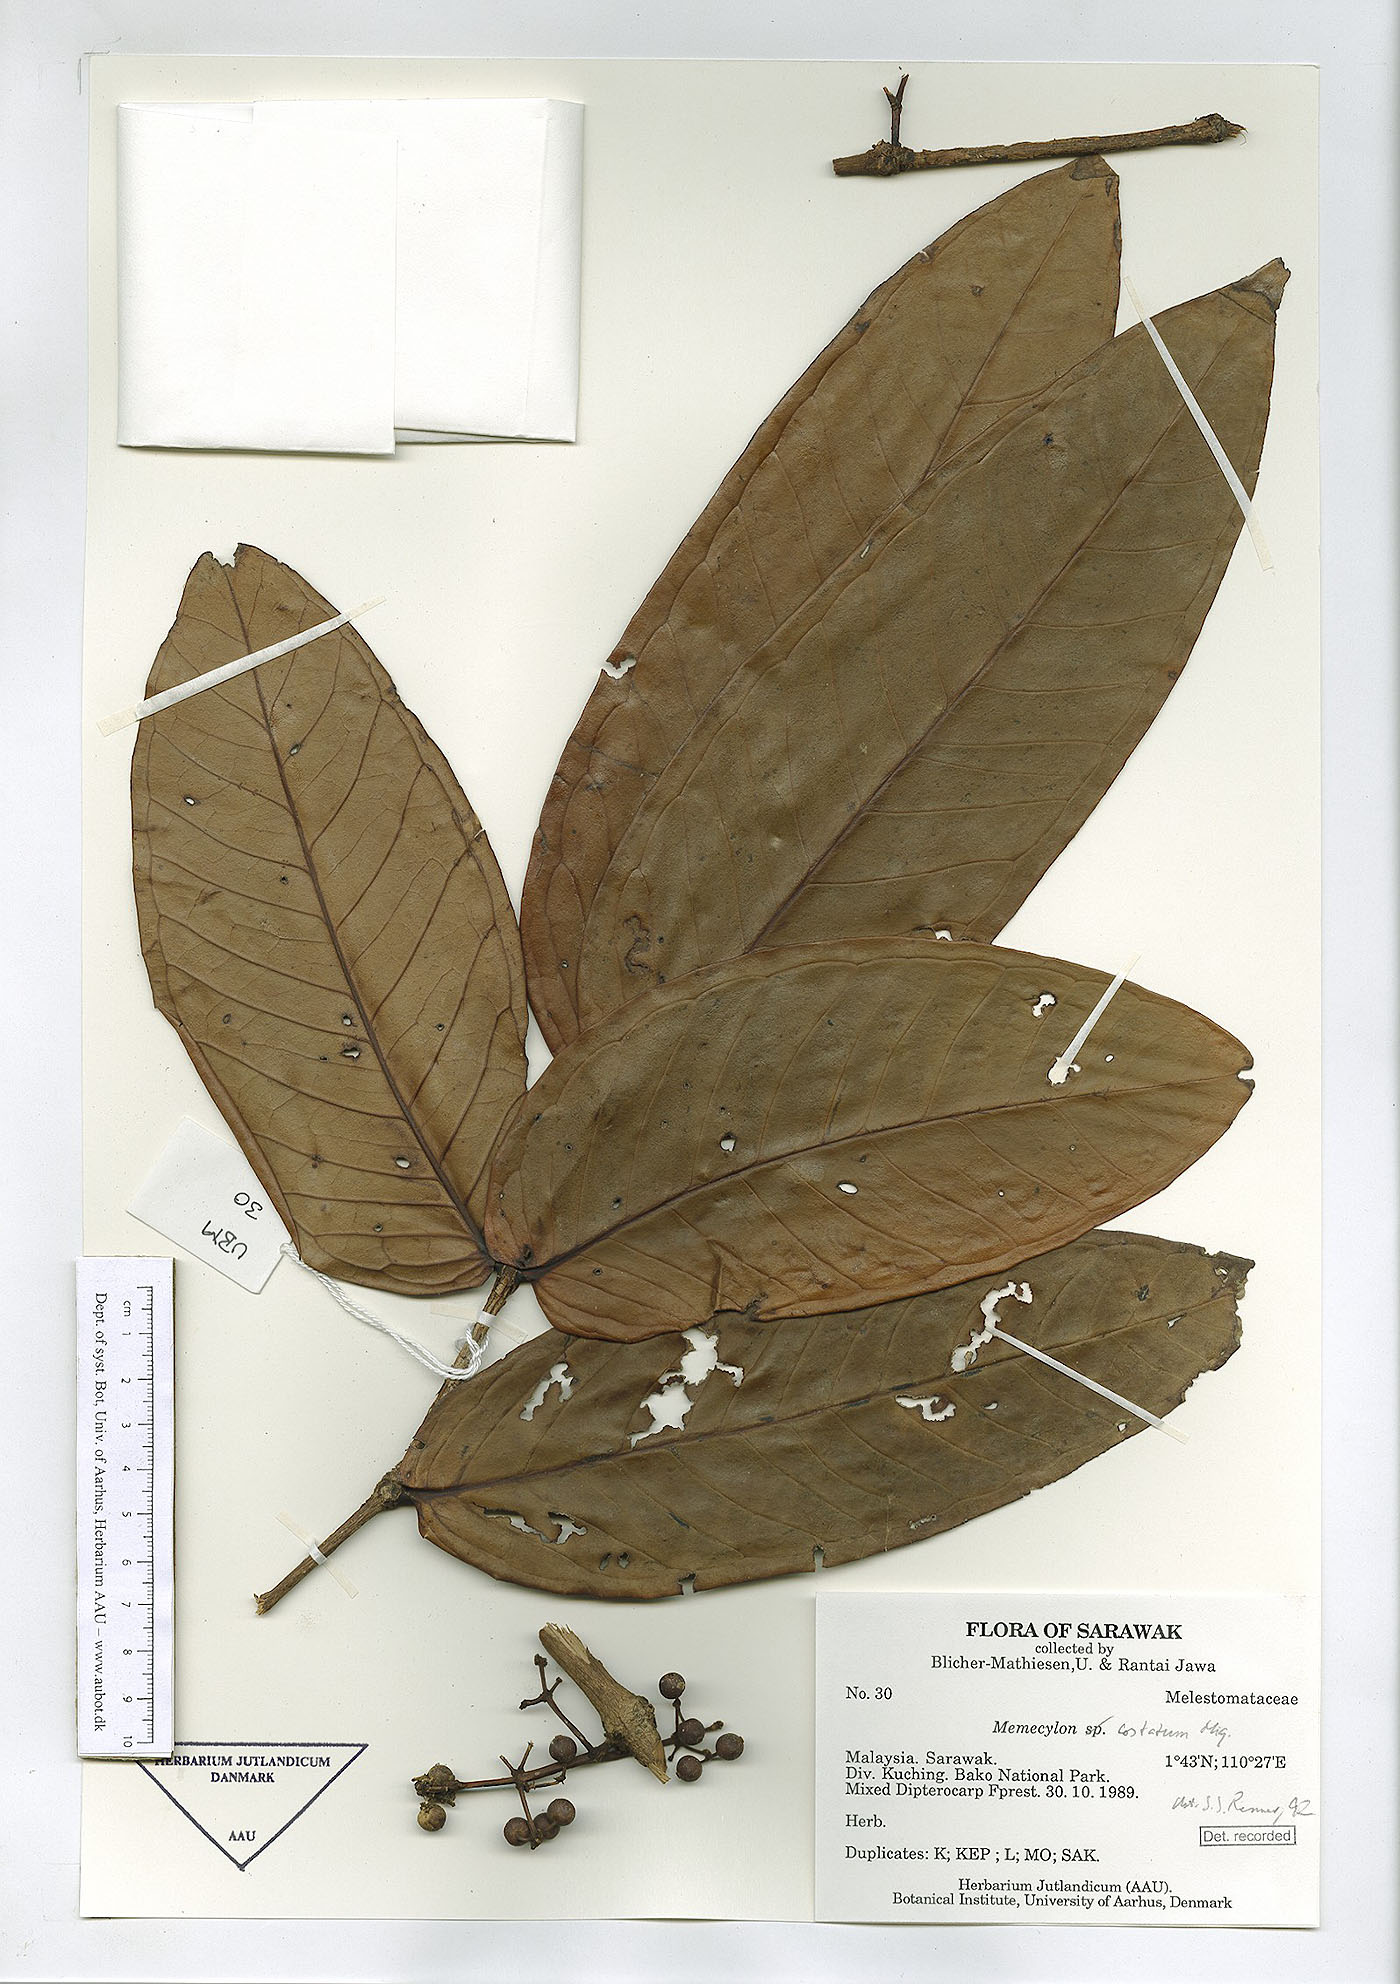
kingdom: Plantae
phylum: Tracheophyta
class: Magnoliopsida
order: Myrtales
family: Melastomataceae
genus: Memecylon
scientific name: Memecylon paniculatum
